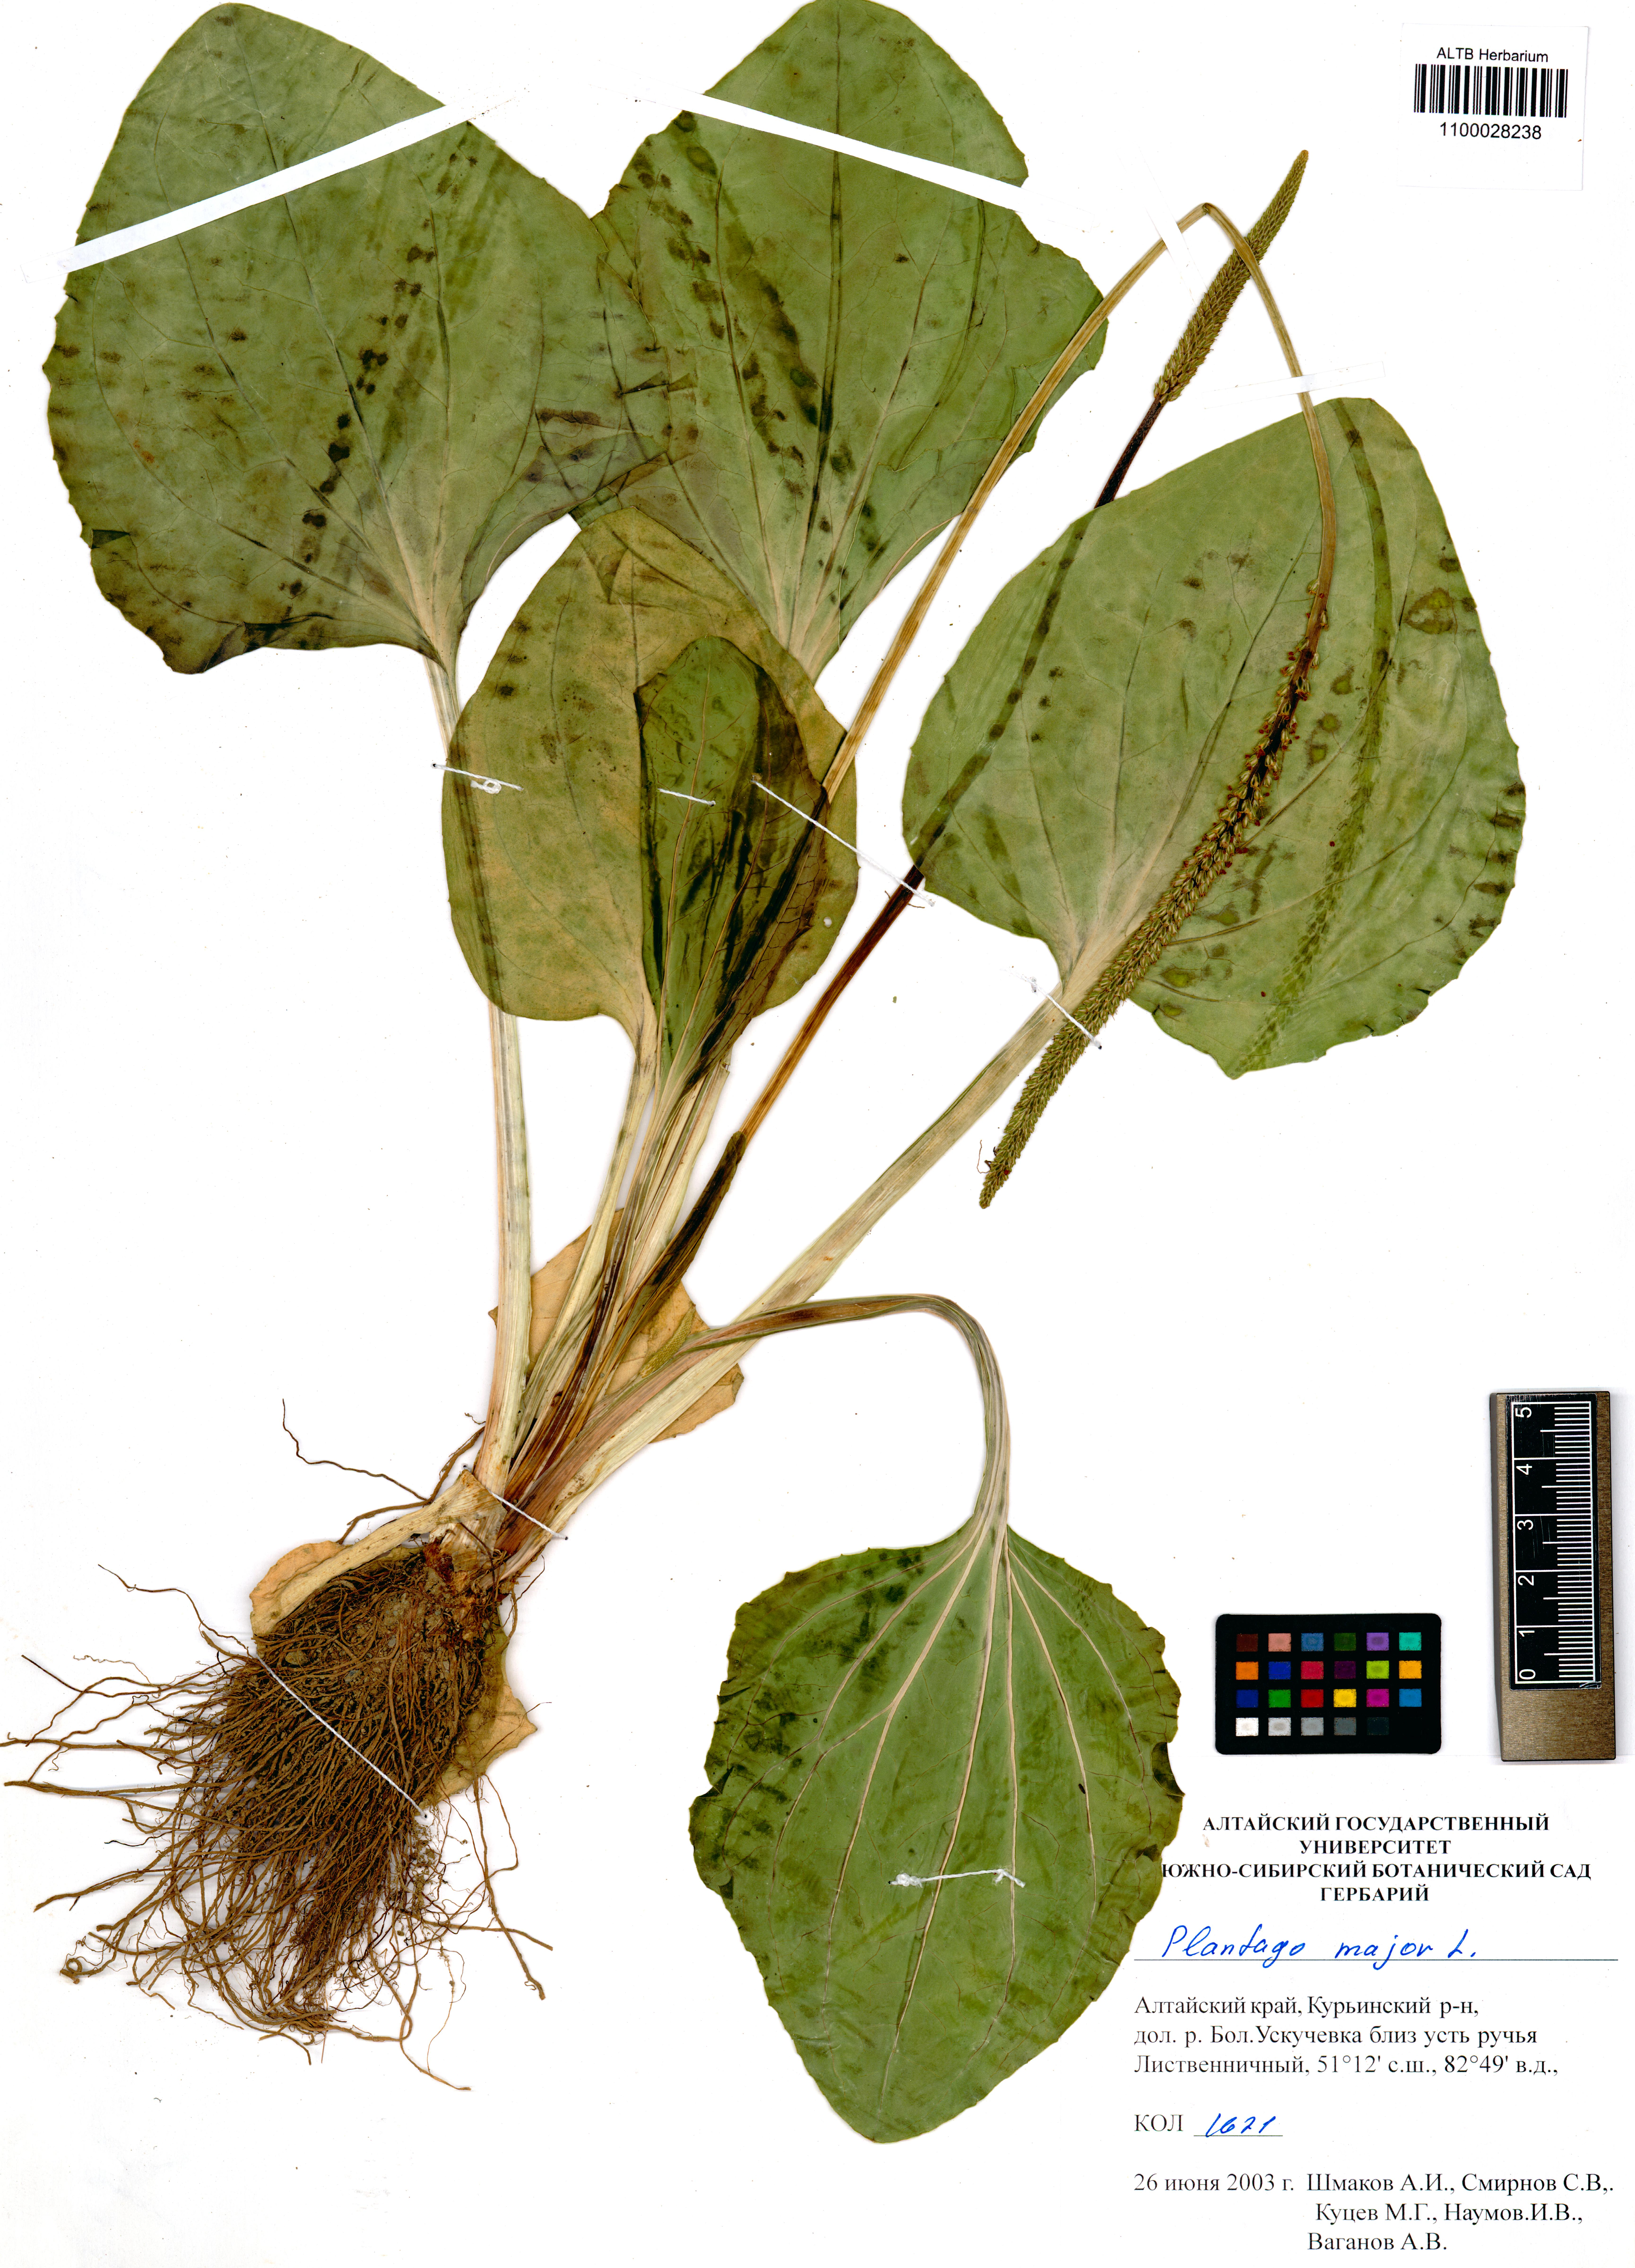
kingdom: Plantae
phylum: Tracheophyta
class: Magnoliopsida
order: Lamiales
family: Plantaginaceae
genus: Plantago
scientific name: Plantago major
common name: Common plantain
